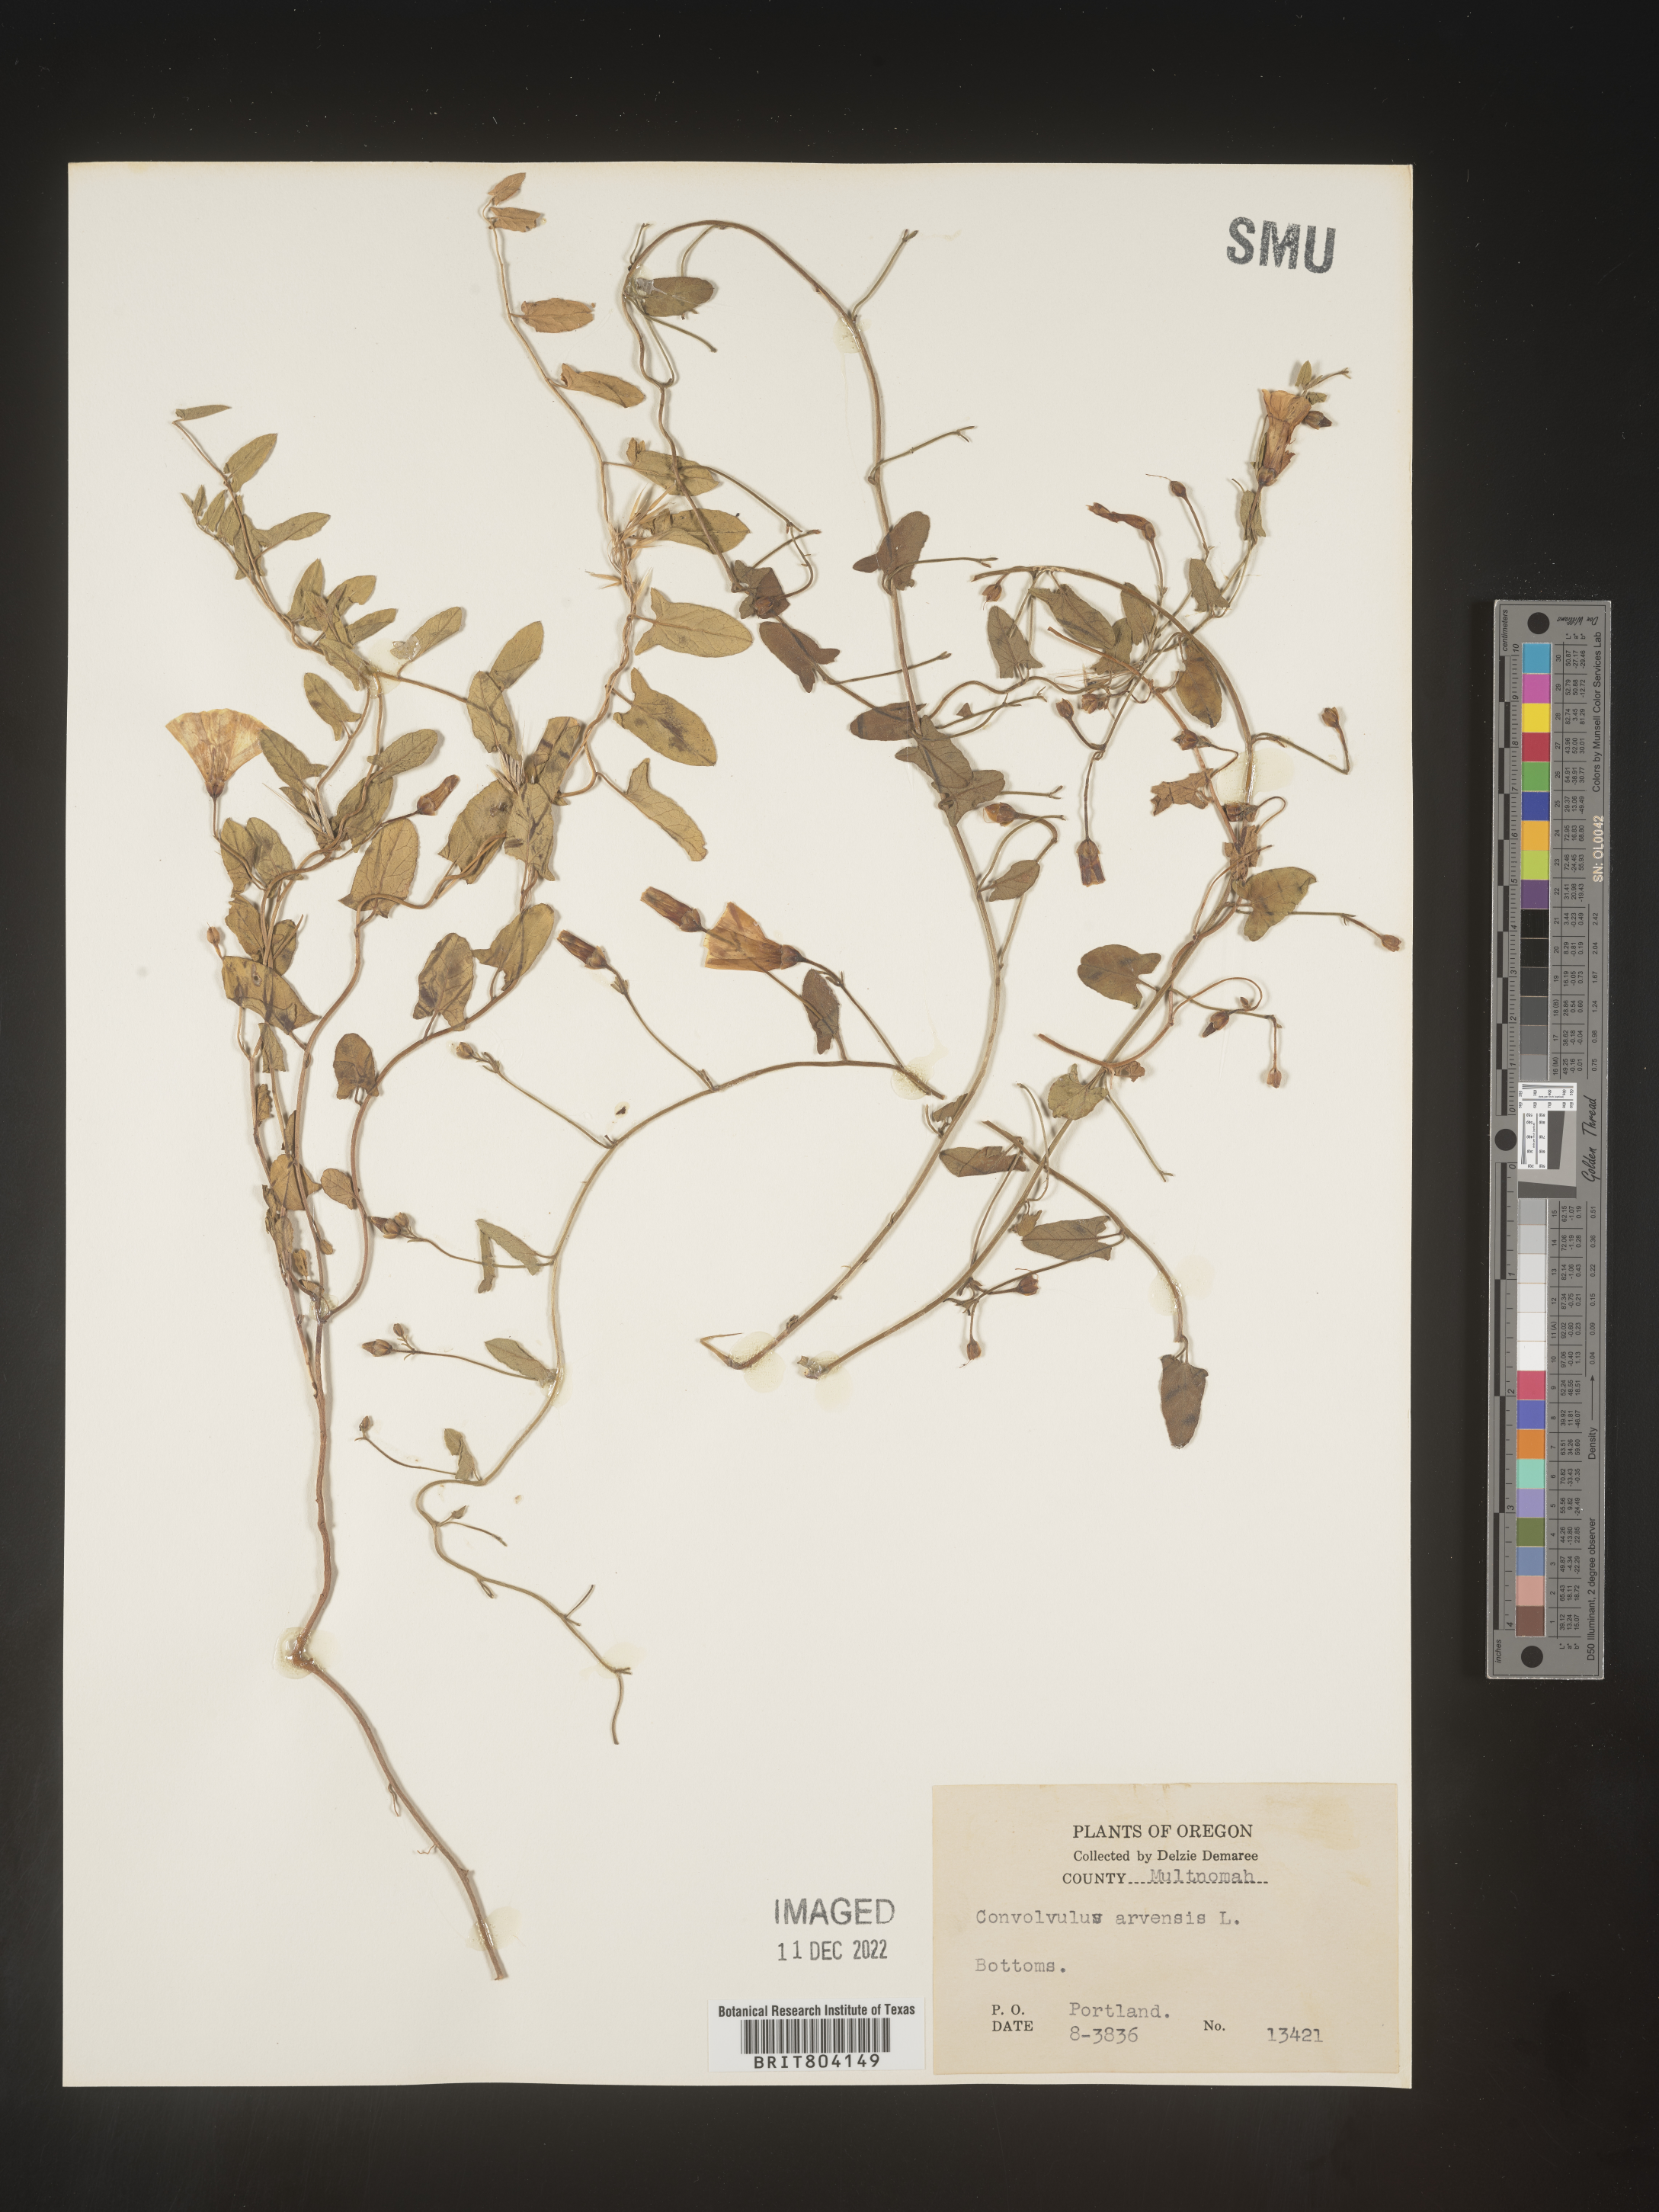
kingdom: Plantae
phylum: Tracheophyta
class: Magnoliopsida
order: Solanales
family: Convolvulaceae
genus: Convolvulus
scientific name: Convolvulus arvensis
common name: Field bindweed
